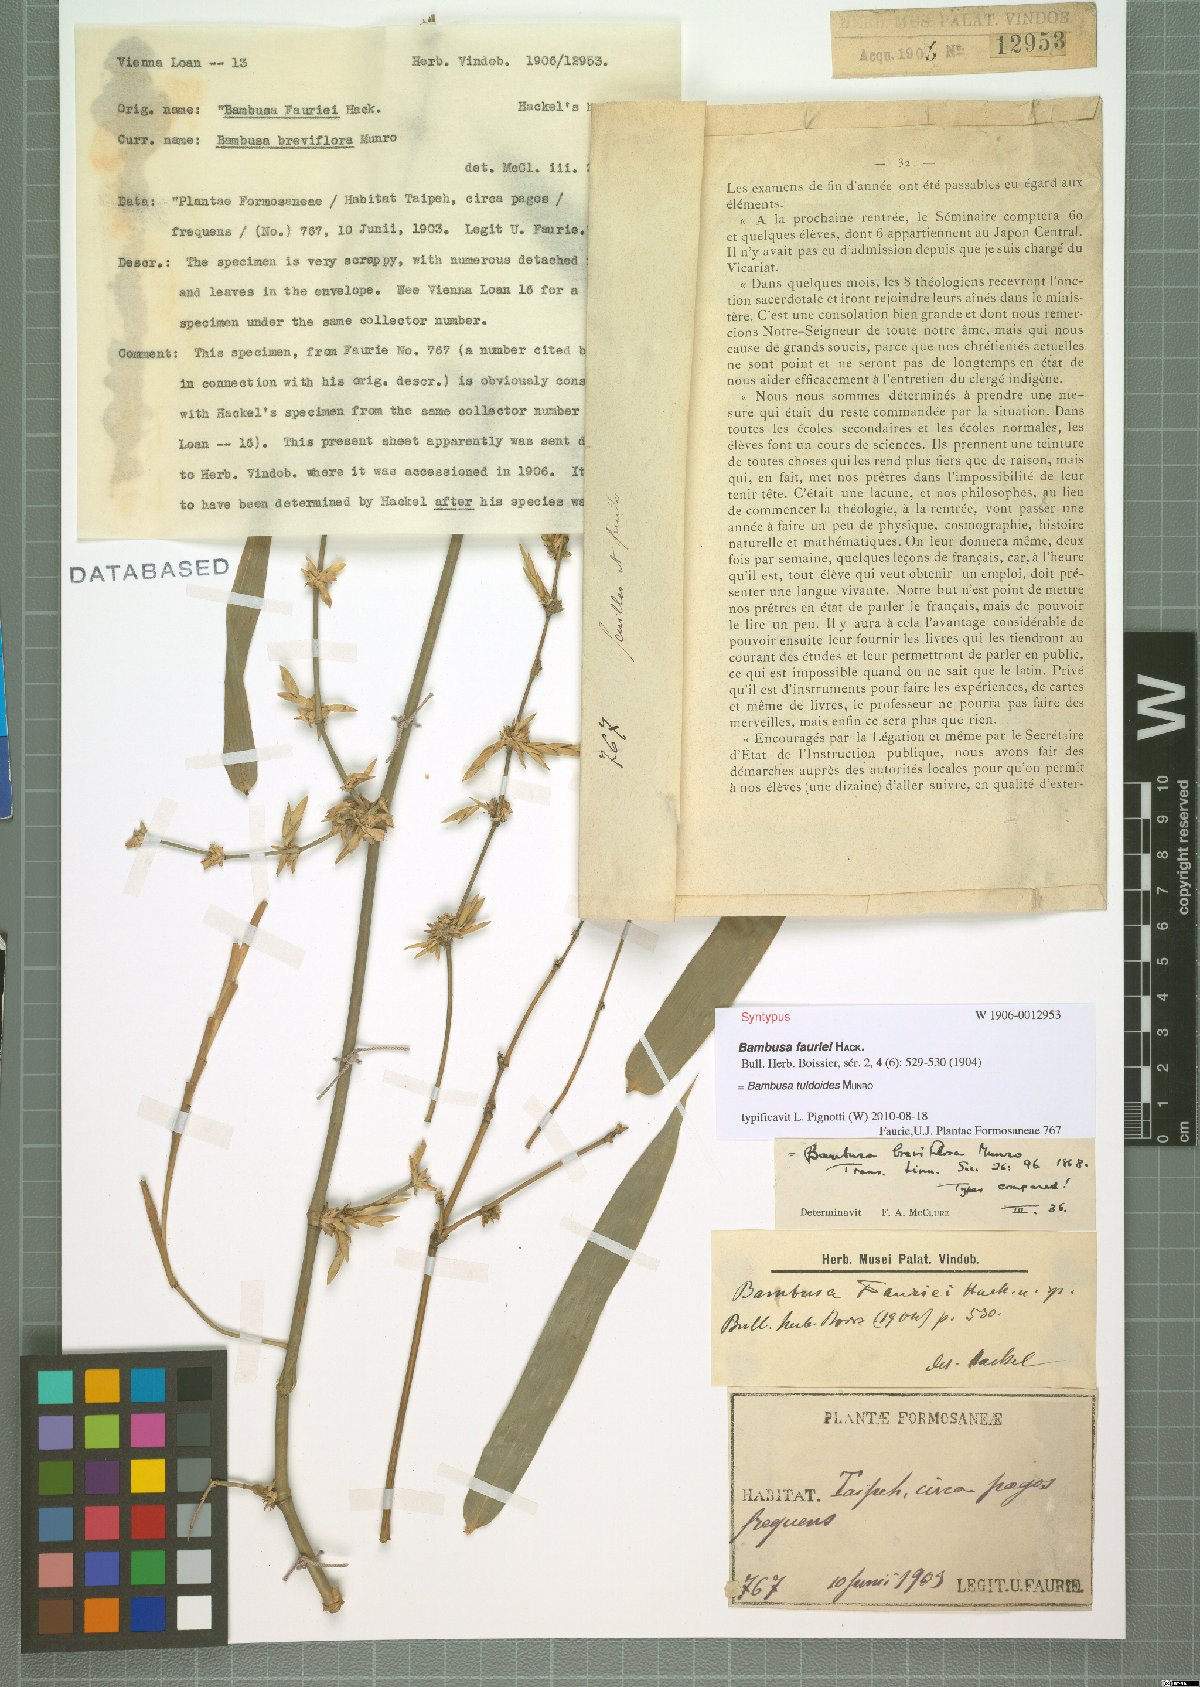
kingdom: Plantae
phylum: Tracheophyta
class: Liliopsida
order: Poales
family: Poaceae
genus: Bambusa
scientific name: Bambusa tuldoides
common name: Verdant bamboo
